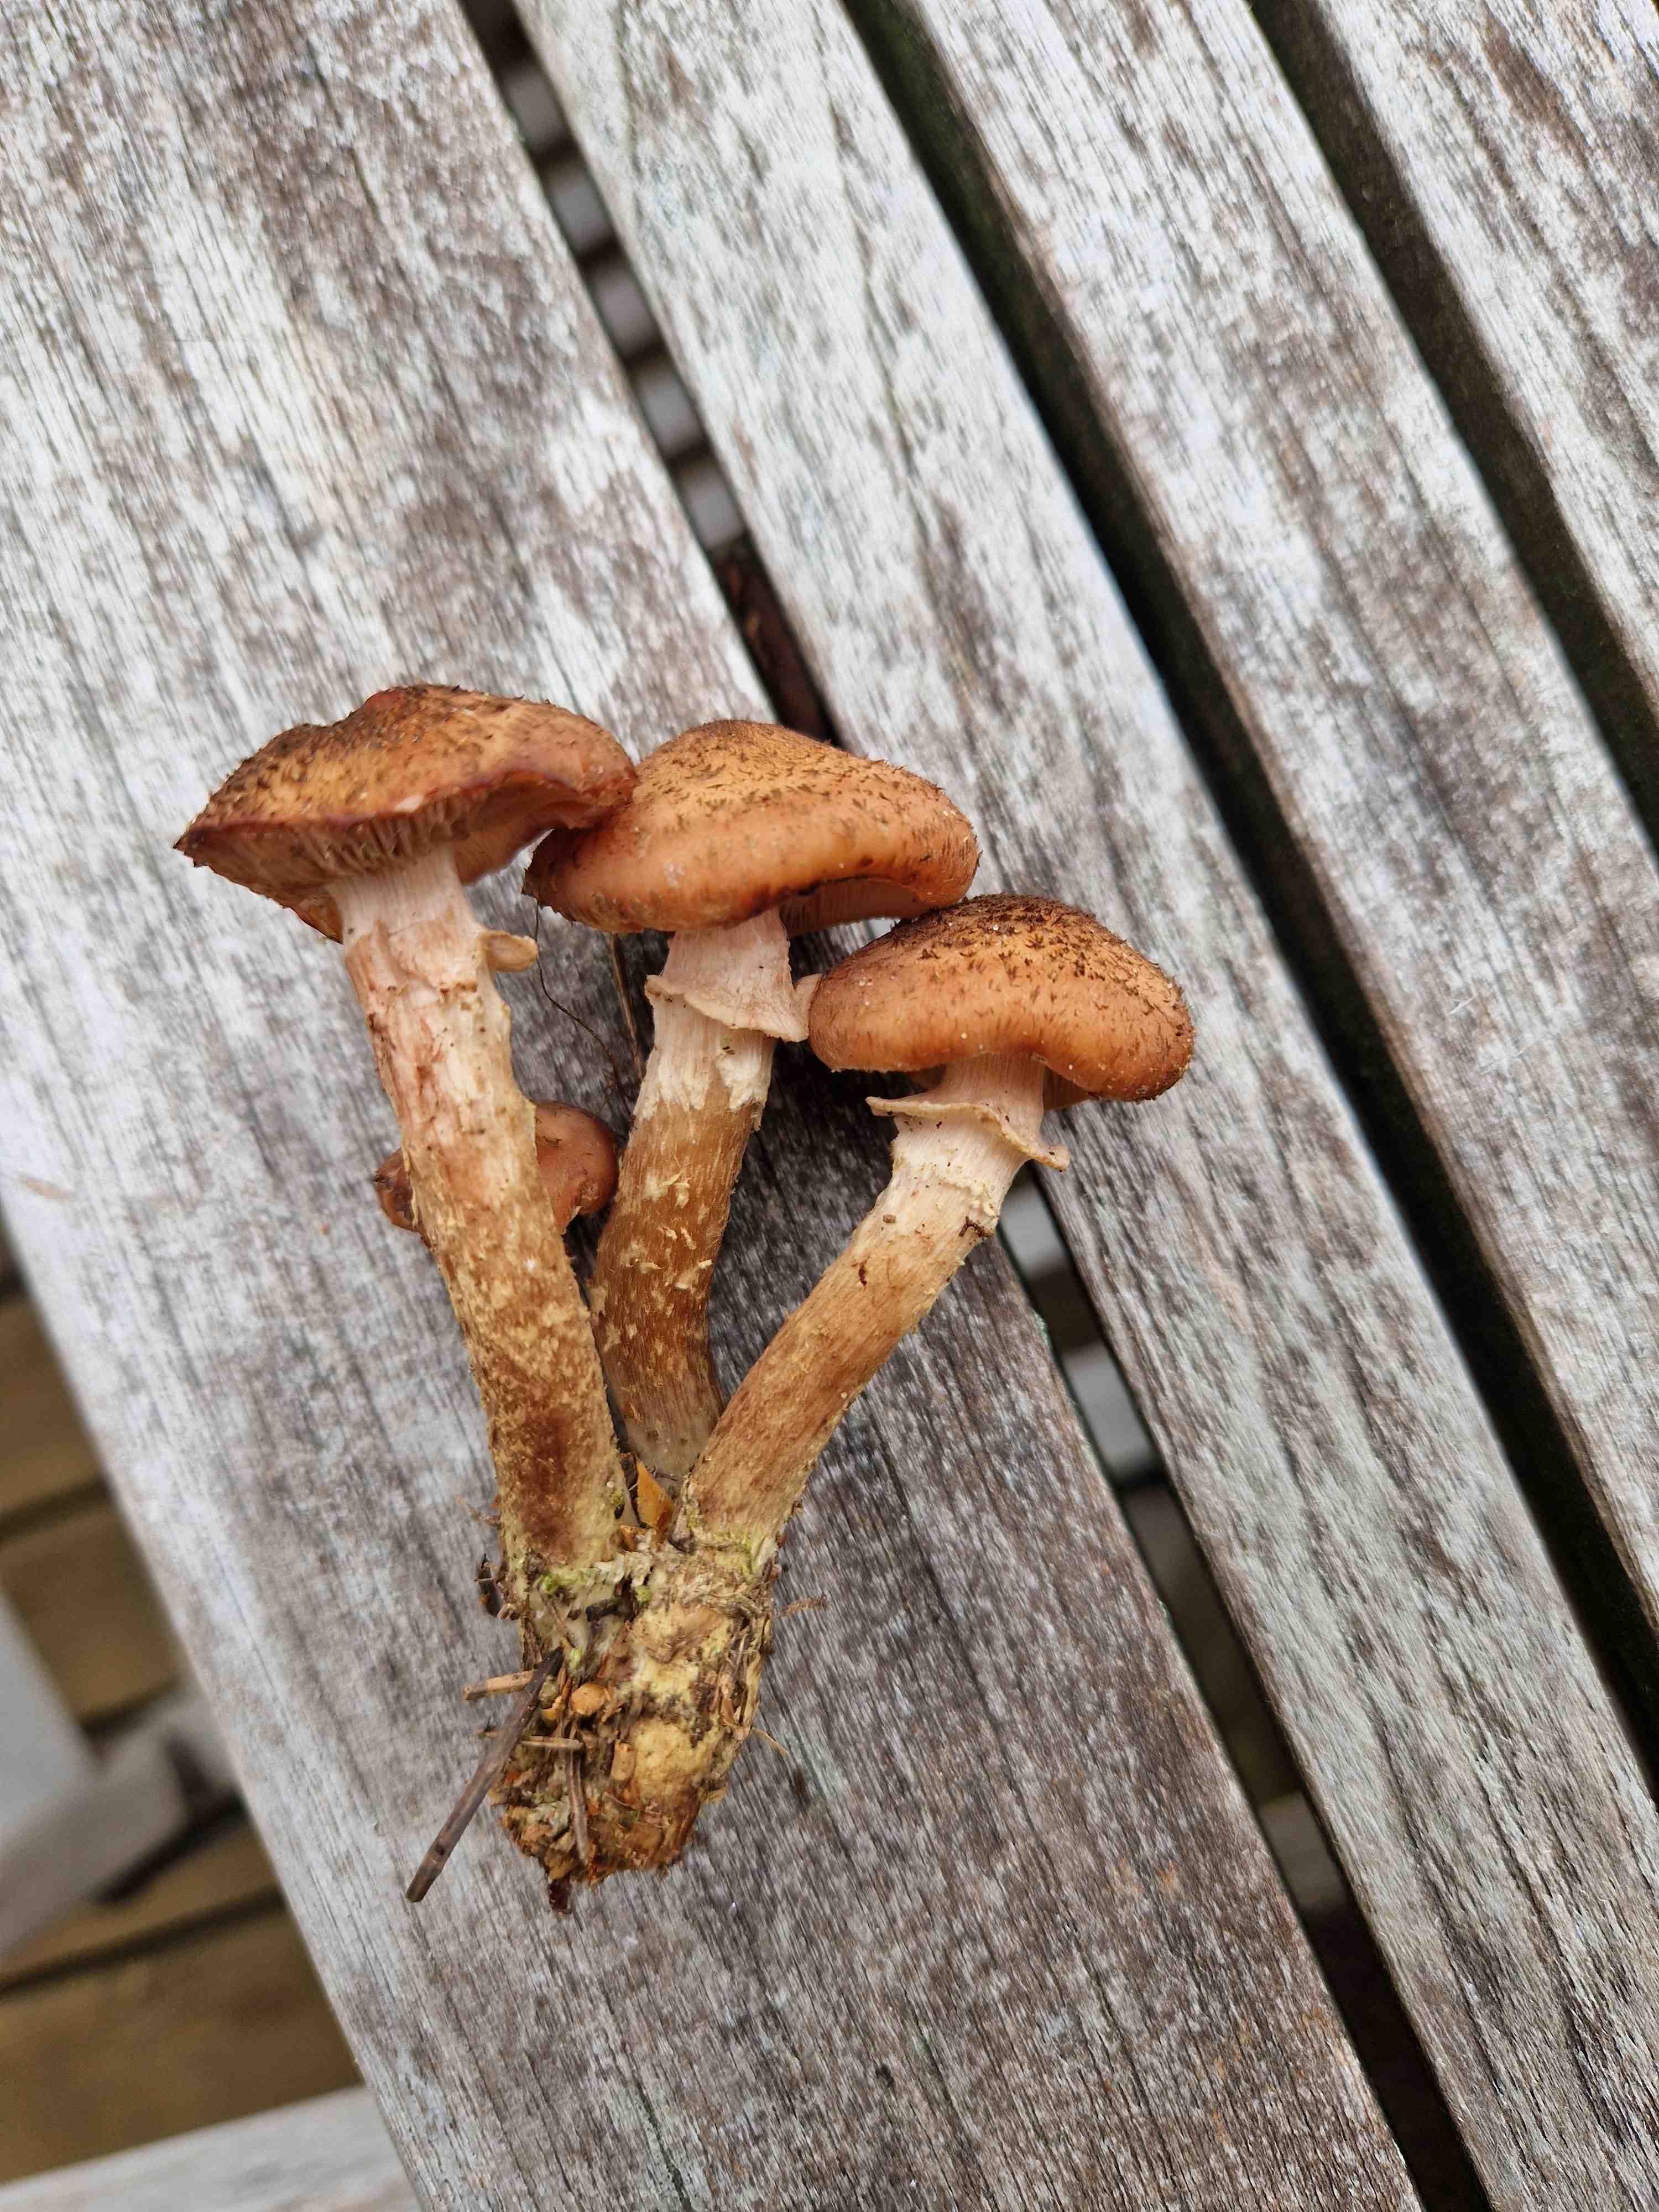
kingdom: Fungi
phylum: Basidiomycota
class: Agaricomycetes
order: Agaricales
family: Physalacriaceae
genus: Armillaria
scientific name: Armillaria lutea
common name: køllestokket honningsvamp
